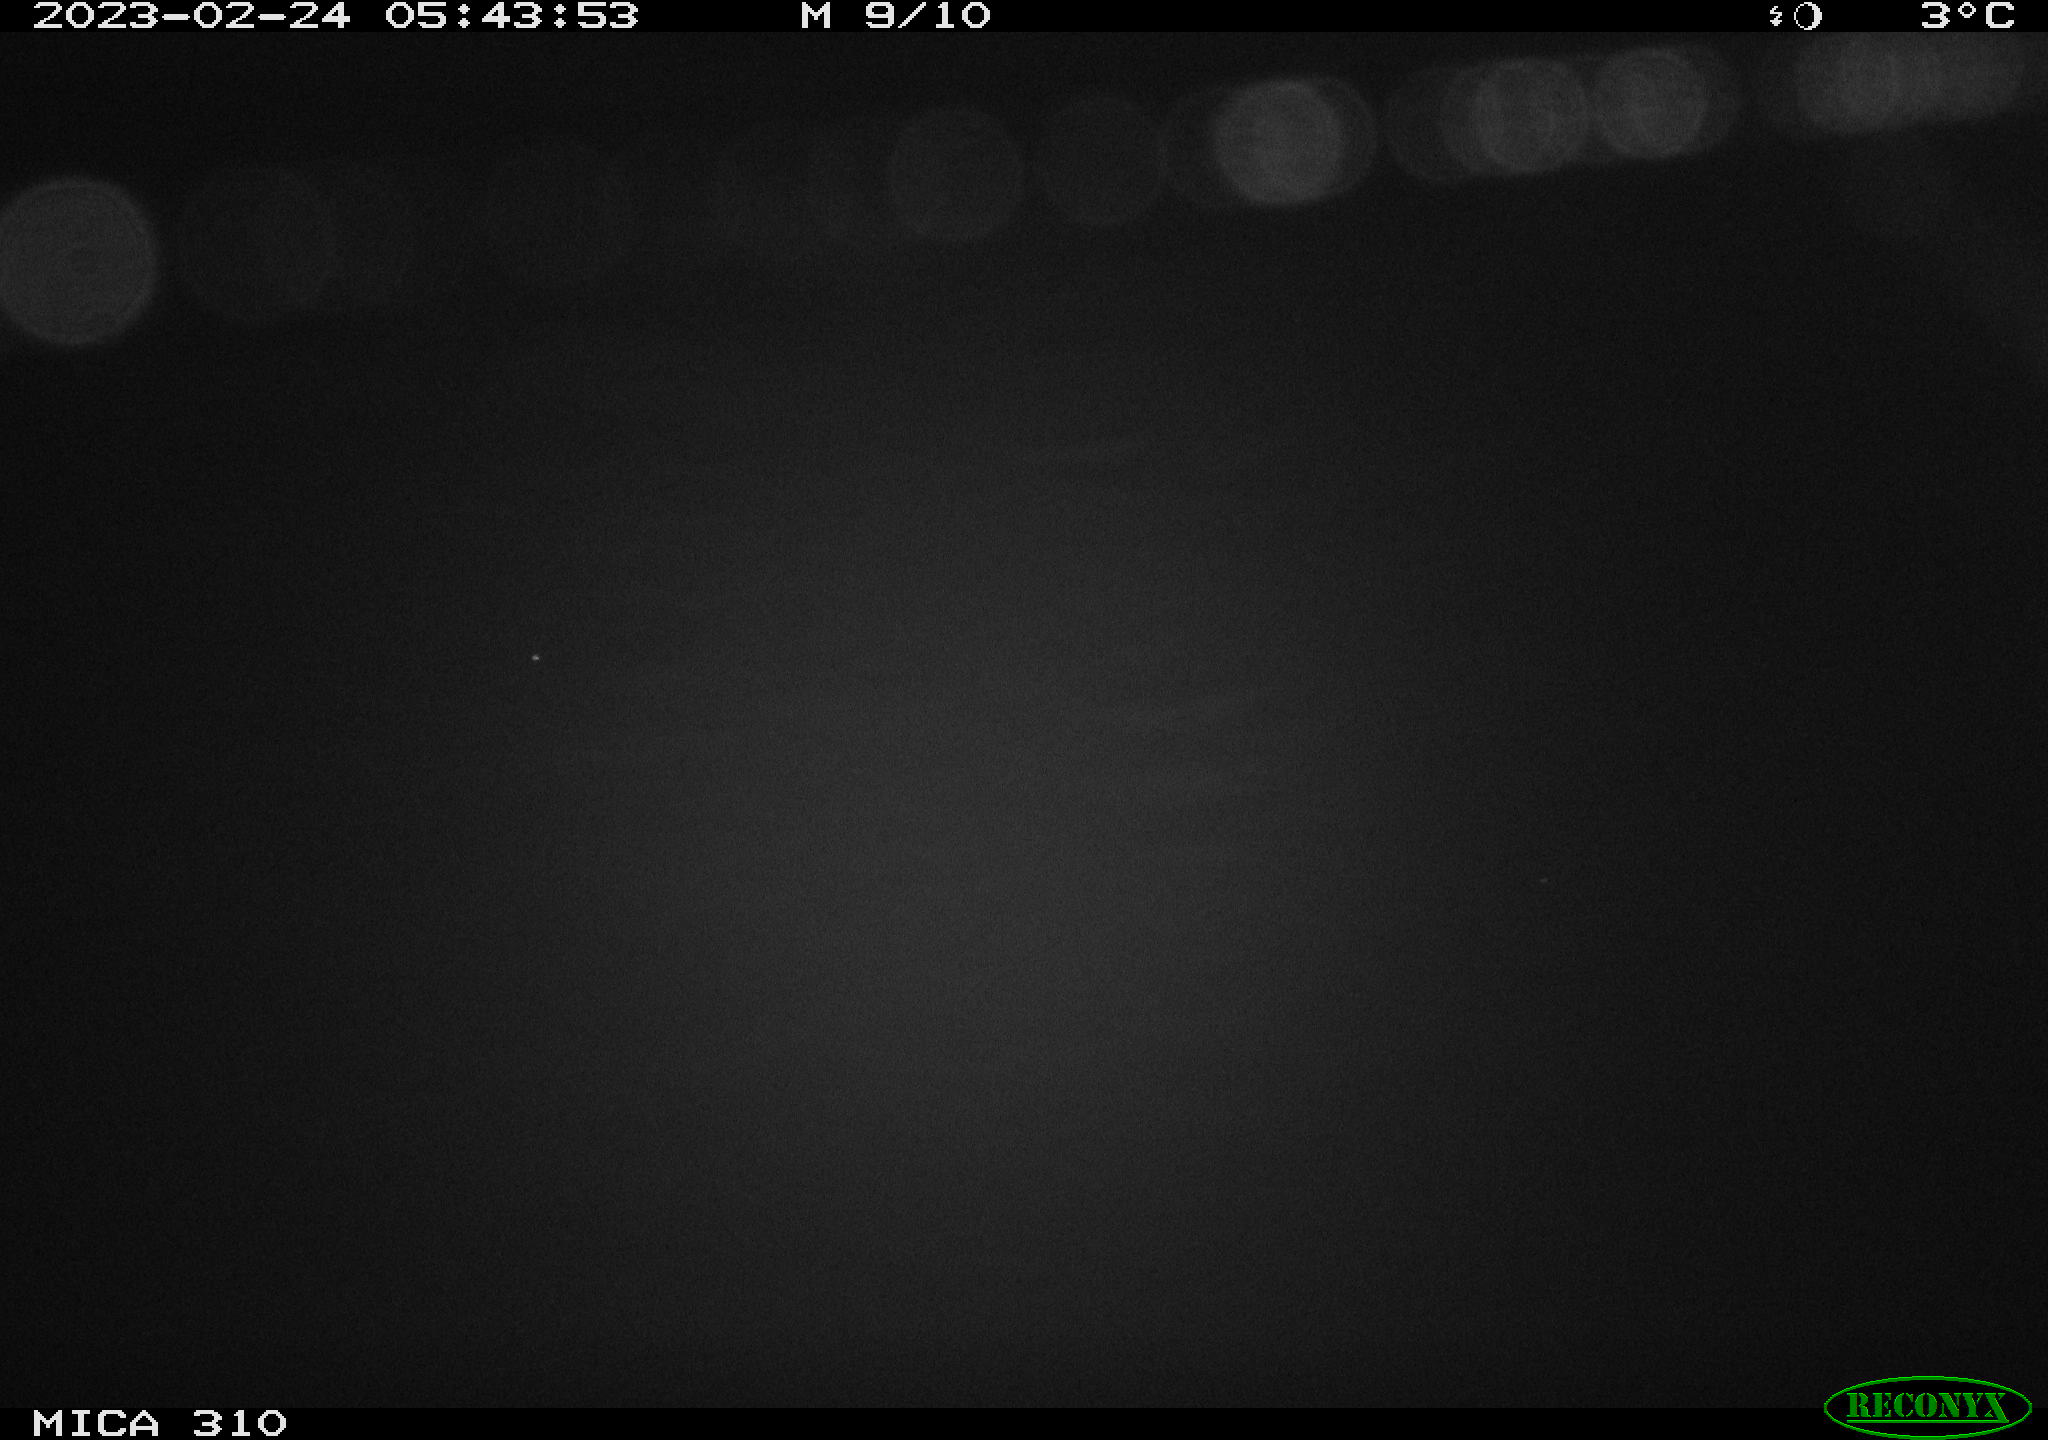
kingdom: Animalia
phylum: Chordata
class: Mammalia
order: Rodentia
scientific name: Rodentia
